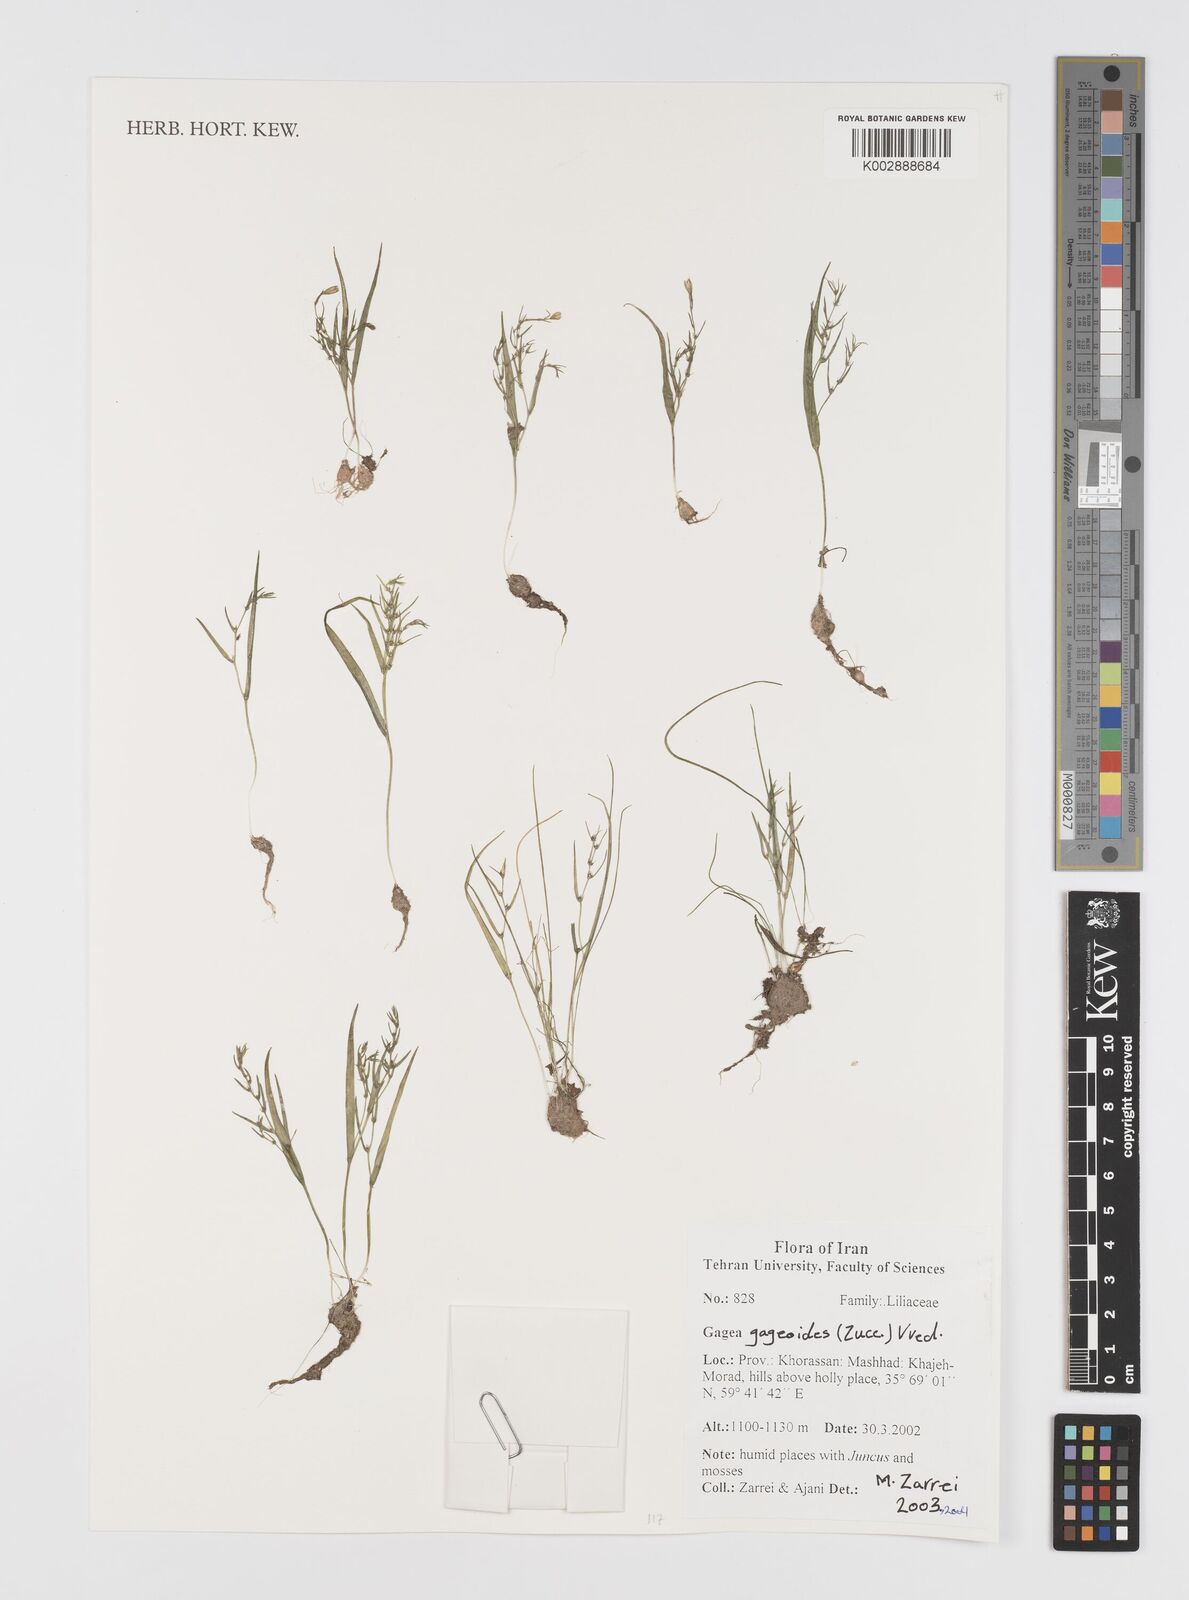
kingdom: Plantae
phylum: Tracheophyta
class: Liliopsida
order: Liliales
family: Liliaceae
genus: Gagea
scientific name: Gagea gageoides
